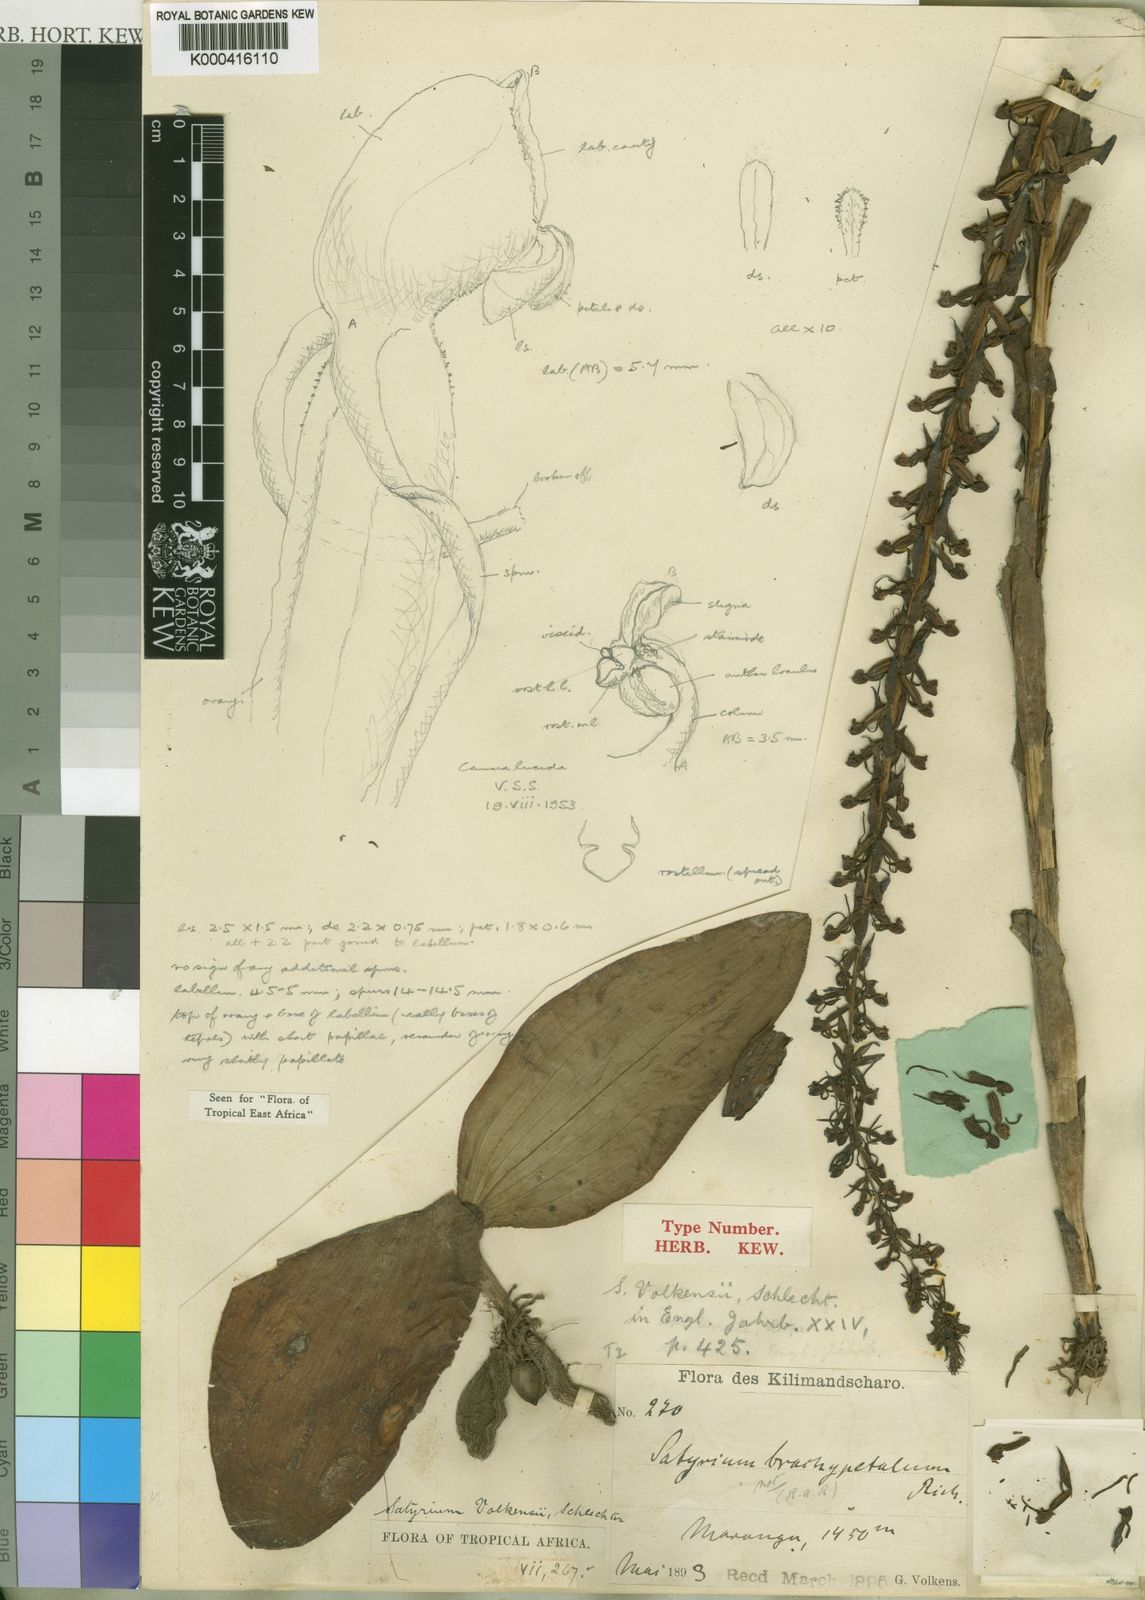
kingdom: Plantae
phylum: Tracheophyta
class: Liliopsida
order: Asparagales
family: Orchidaceae
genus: Satyrium
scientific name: Satyrium volkensii
